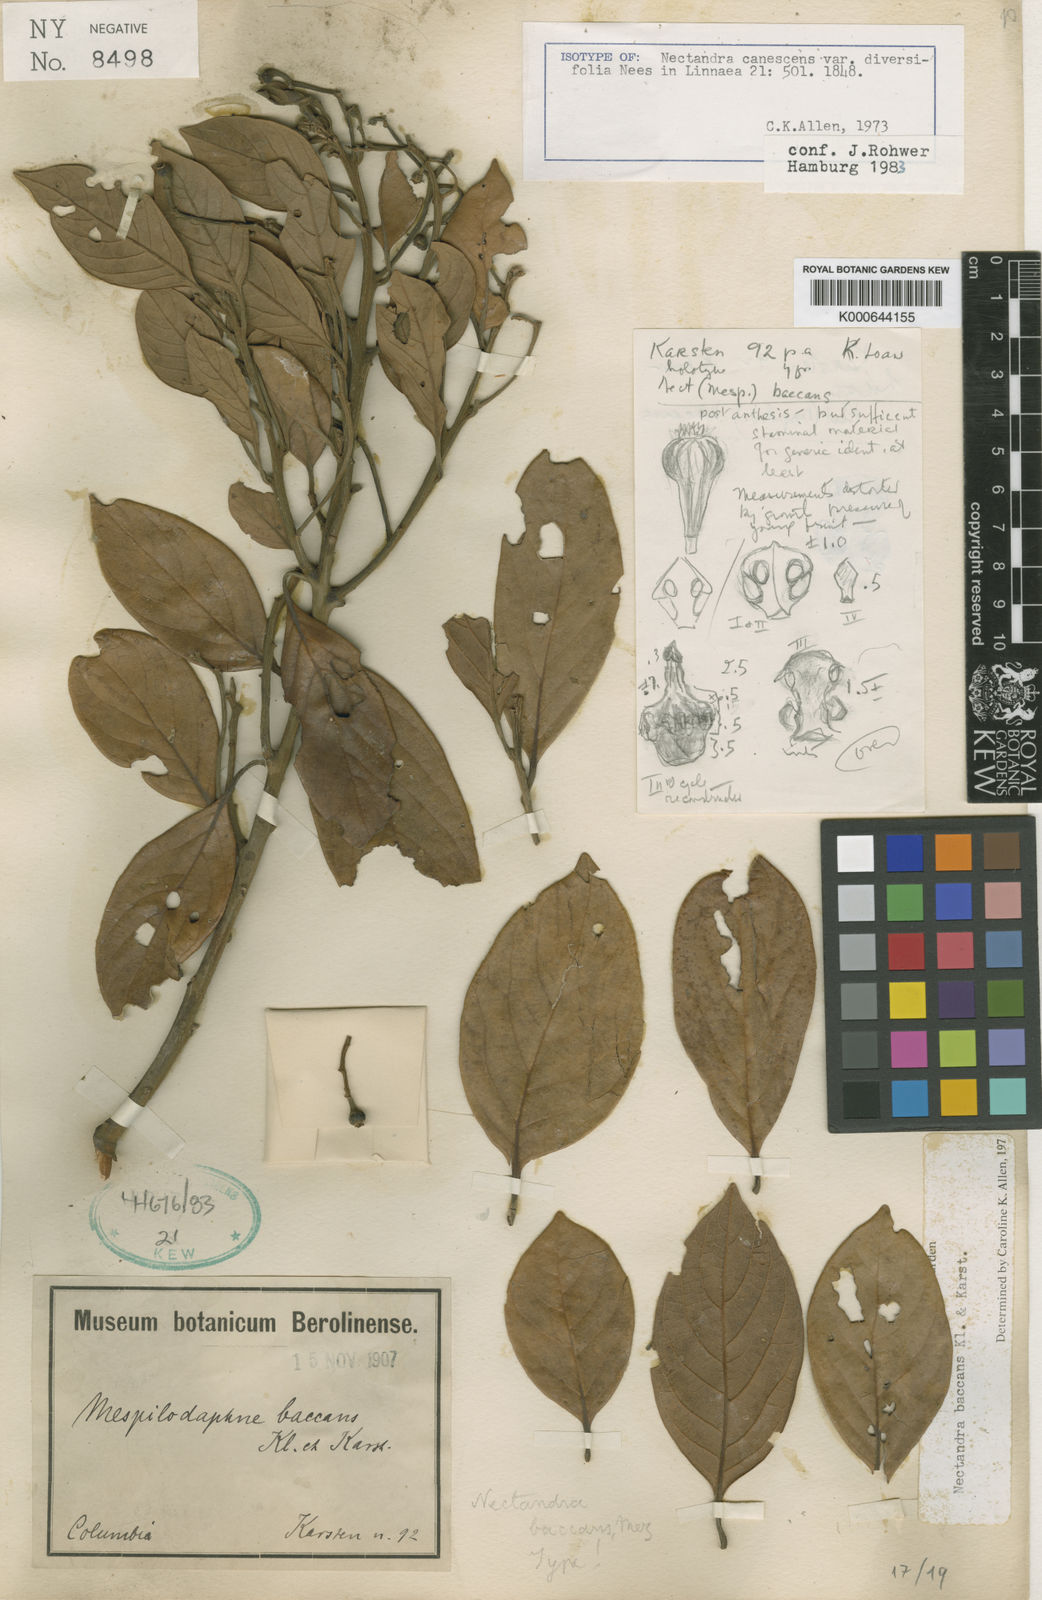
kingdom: Plantae
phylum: Tracheophyta
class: Magnoliopsida
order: Laurales
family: Lauraceae
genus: Nectandra
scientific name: Nectandra baccans
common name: Berrylike nectandra
